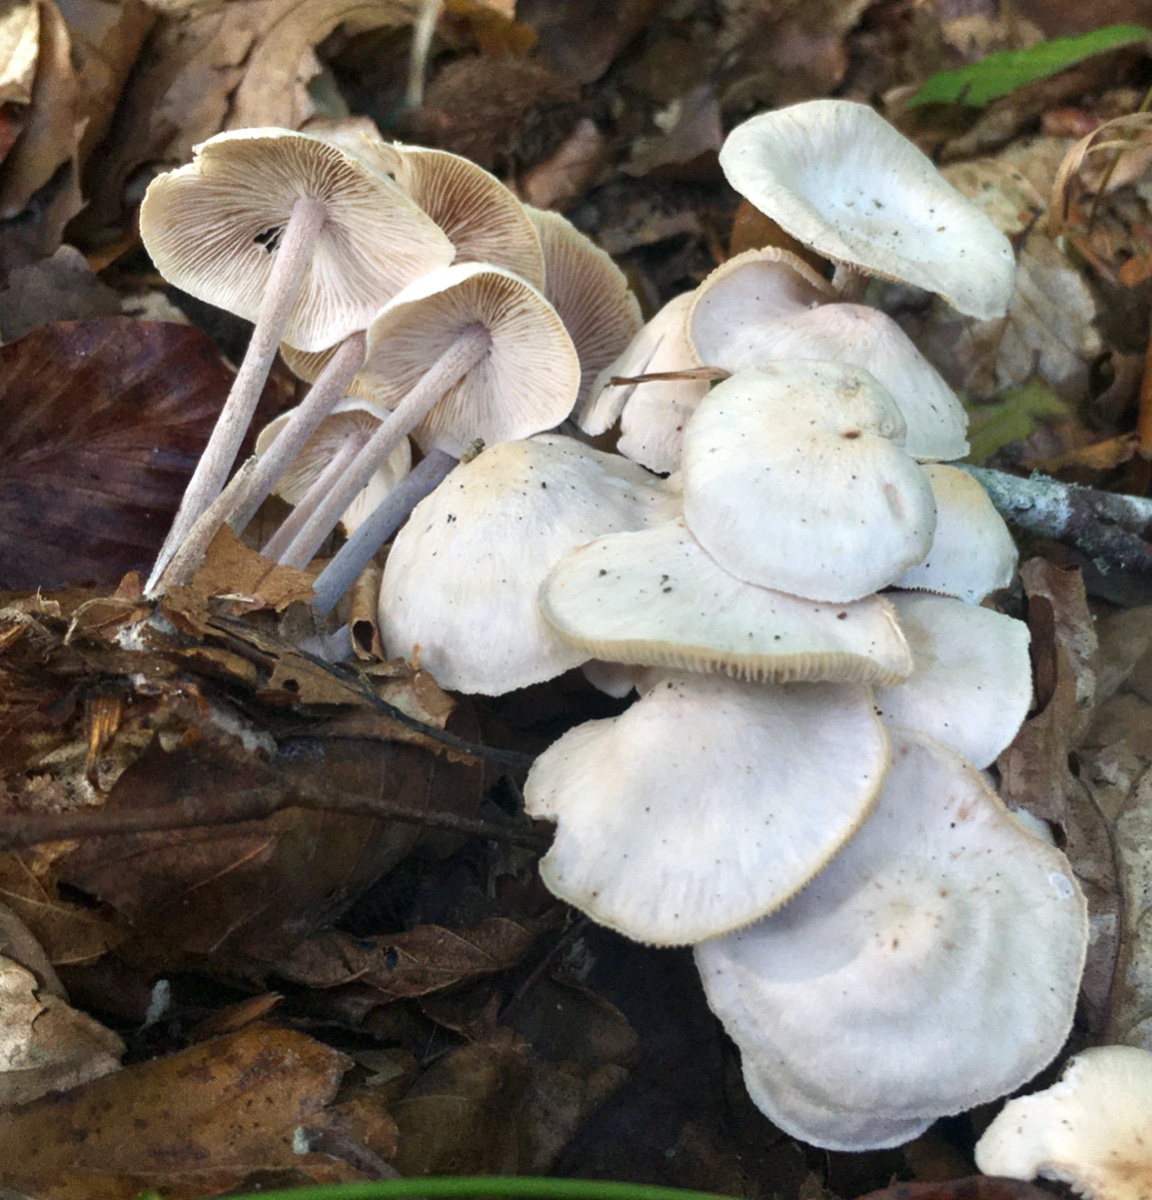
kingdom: Fungi
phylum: Basidiomycota
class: Agaricomycetes
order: Agaricales
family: Omphalotaceae
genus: Collybiopsis
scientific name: Collybiopsis confluens
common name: knippe-fladhat
